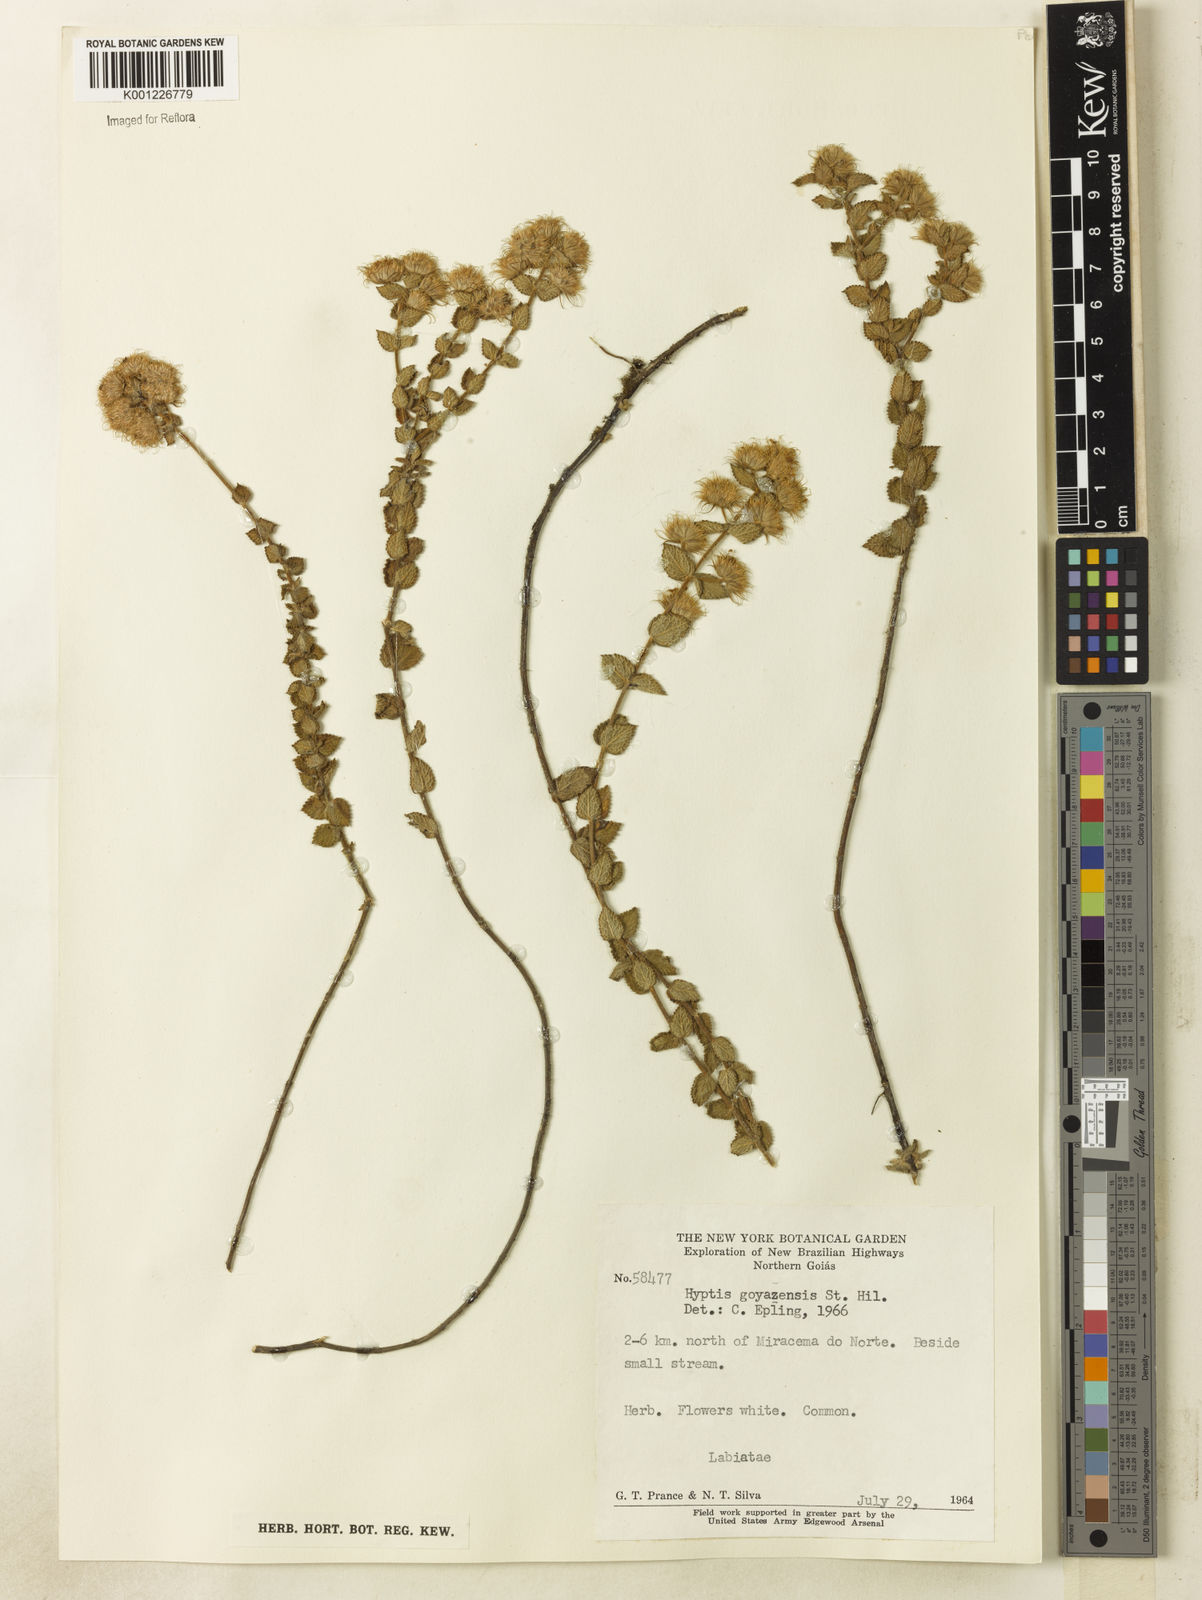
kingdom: Plantae
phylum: Tracheophyta
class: Magnoliopsida
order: Lamiales
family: Lamiaceae
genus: Hyptis
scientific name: Hyptis crenata
